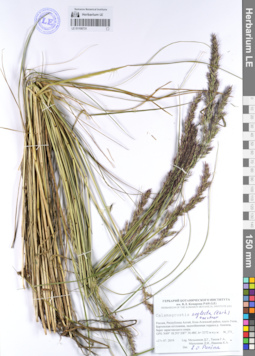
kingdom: Plantae
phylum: Tracheophyta
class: Liliopsida
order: Poales
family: Poaceae
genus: Achnatherum
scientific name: Achnatherum calamagrostis
